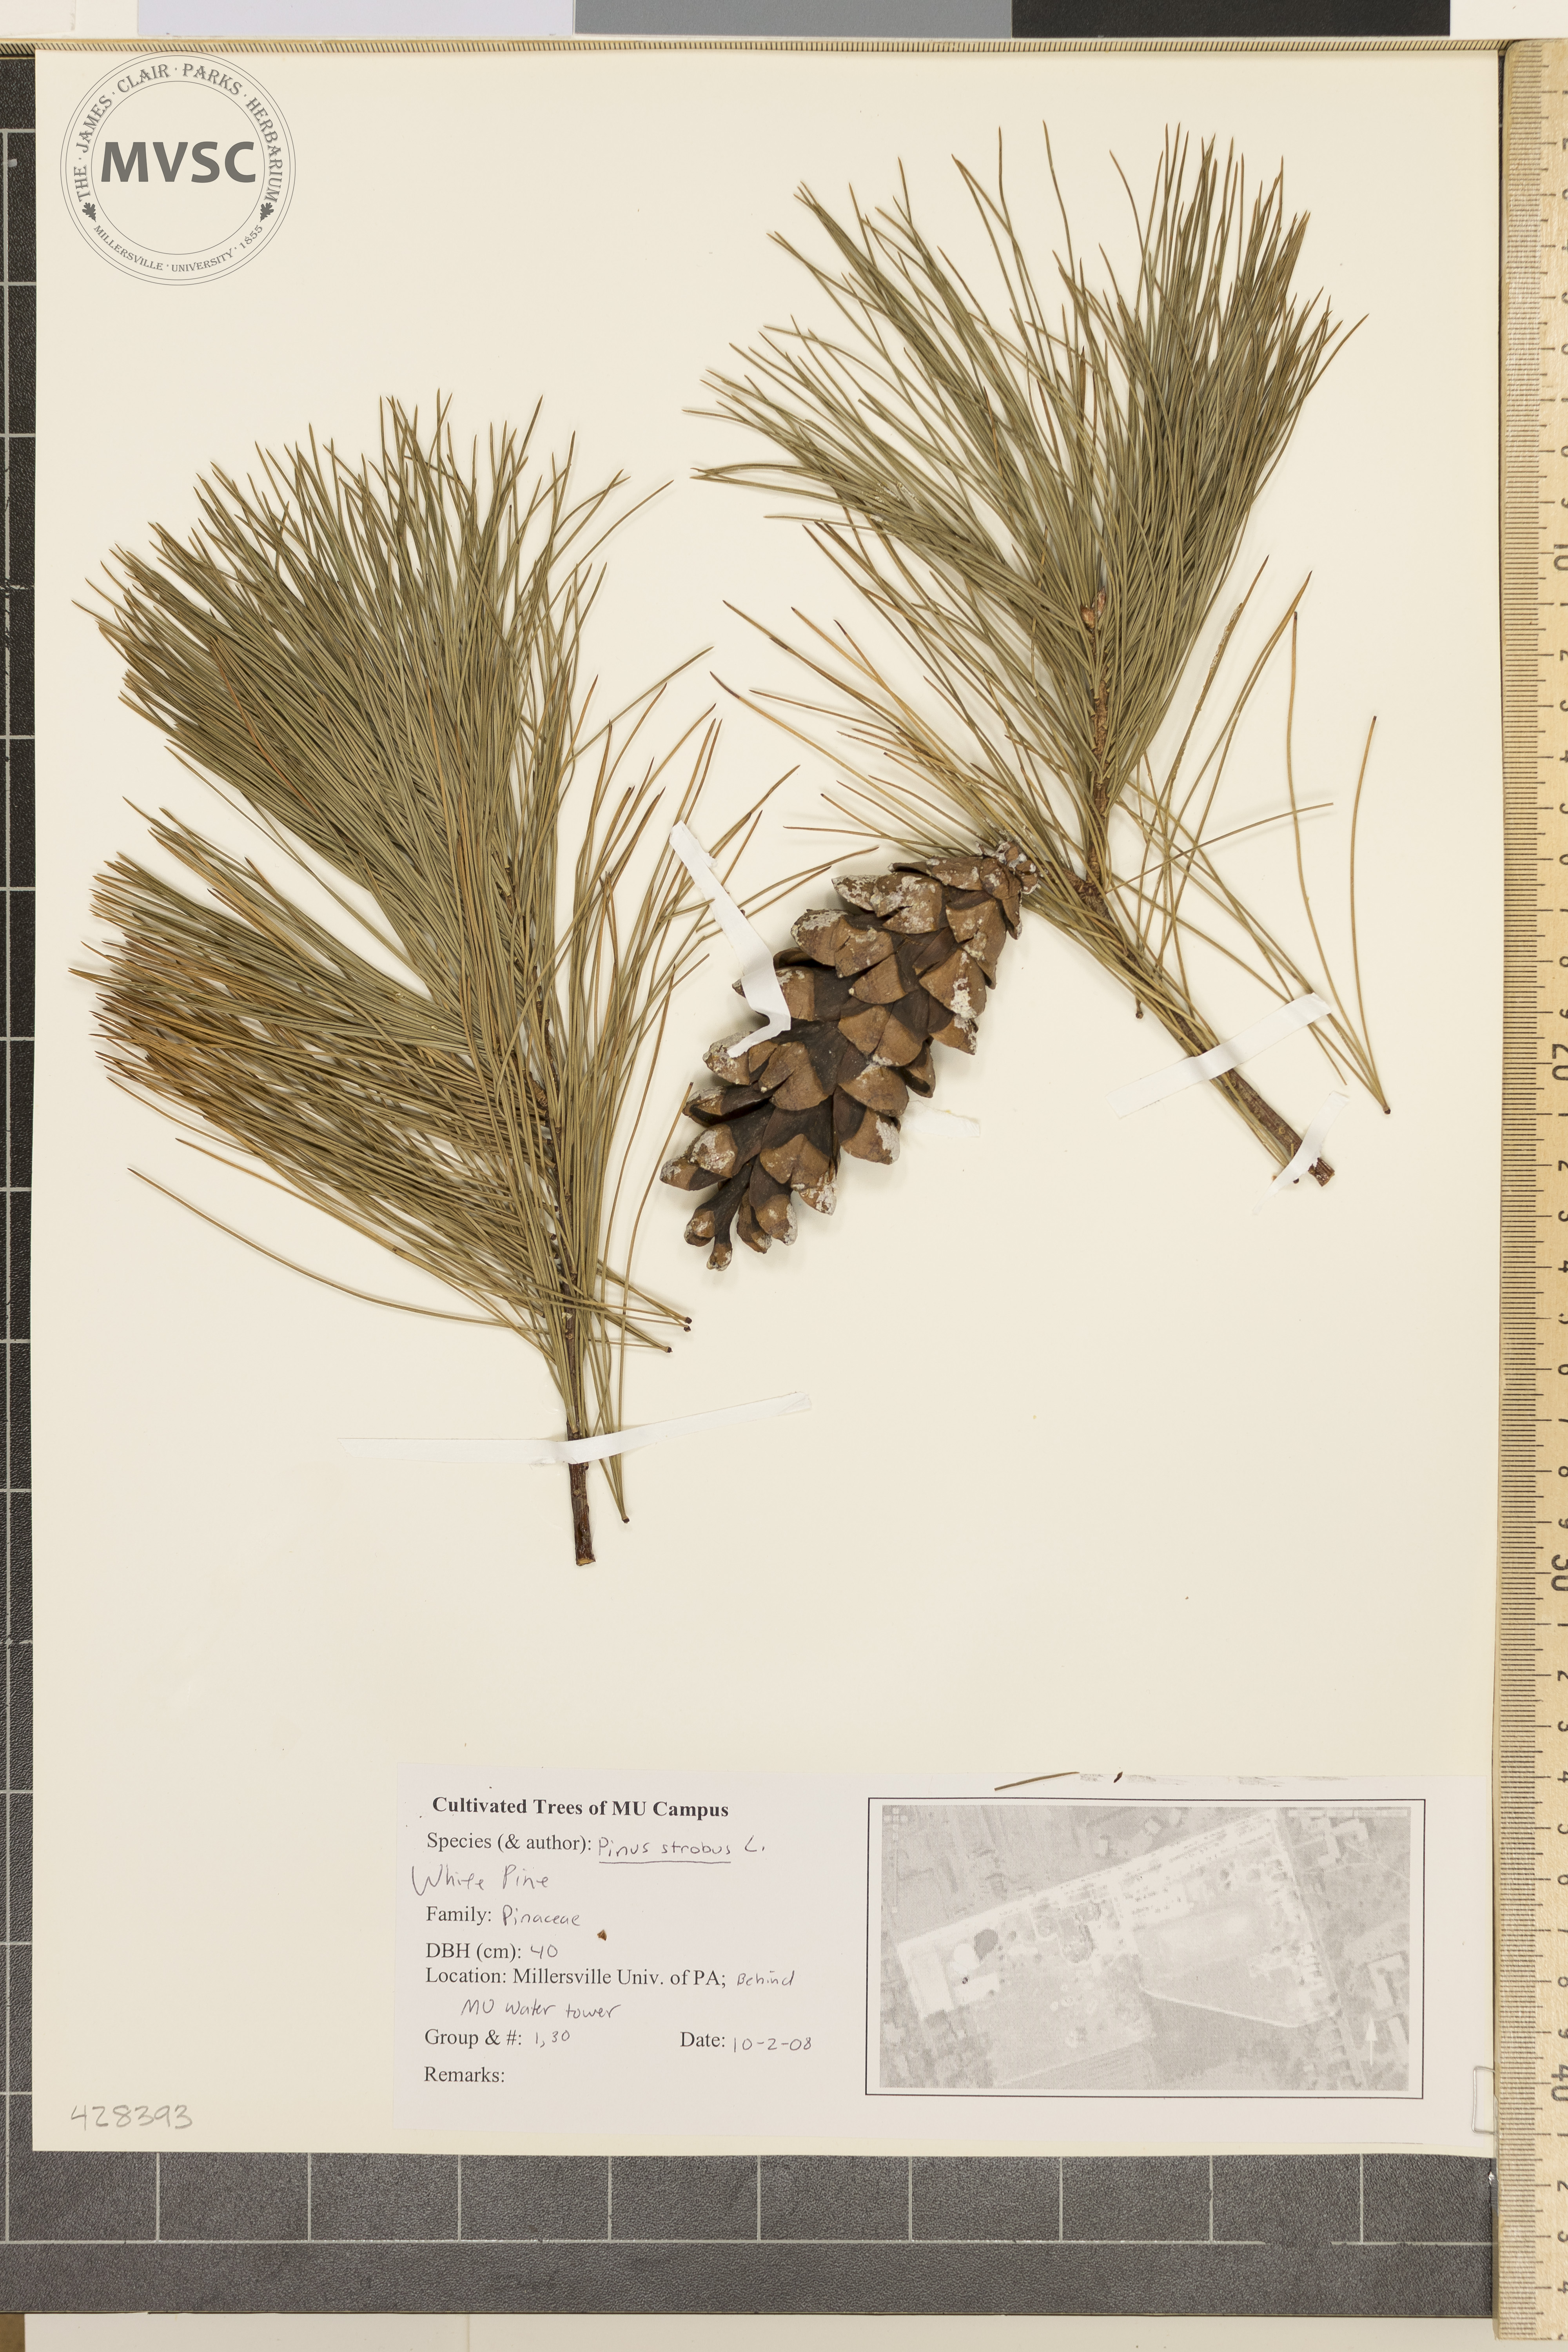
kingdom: Plantae
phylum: Tracheophyta
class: Pinopsida
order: Pinales
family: Pinaceae
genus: Pinus
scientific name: Pinus strobus
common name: Eastern White Pine
